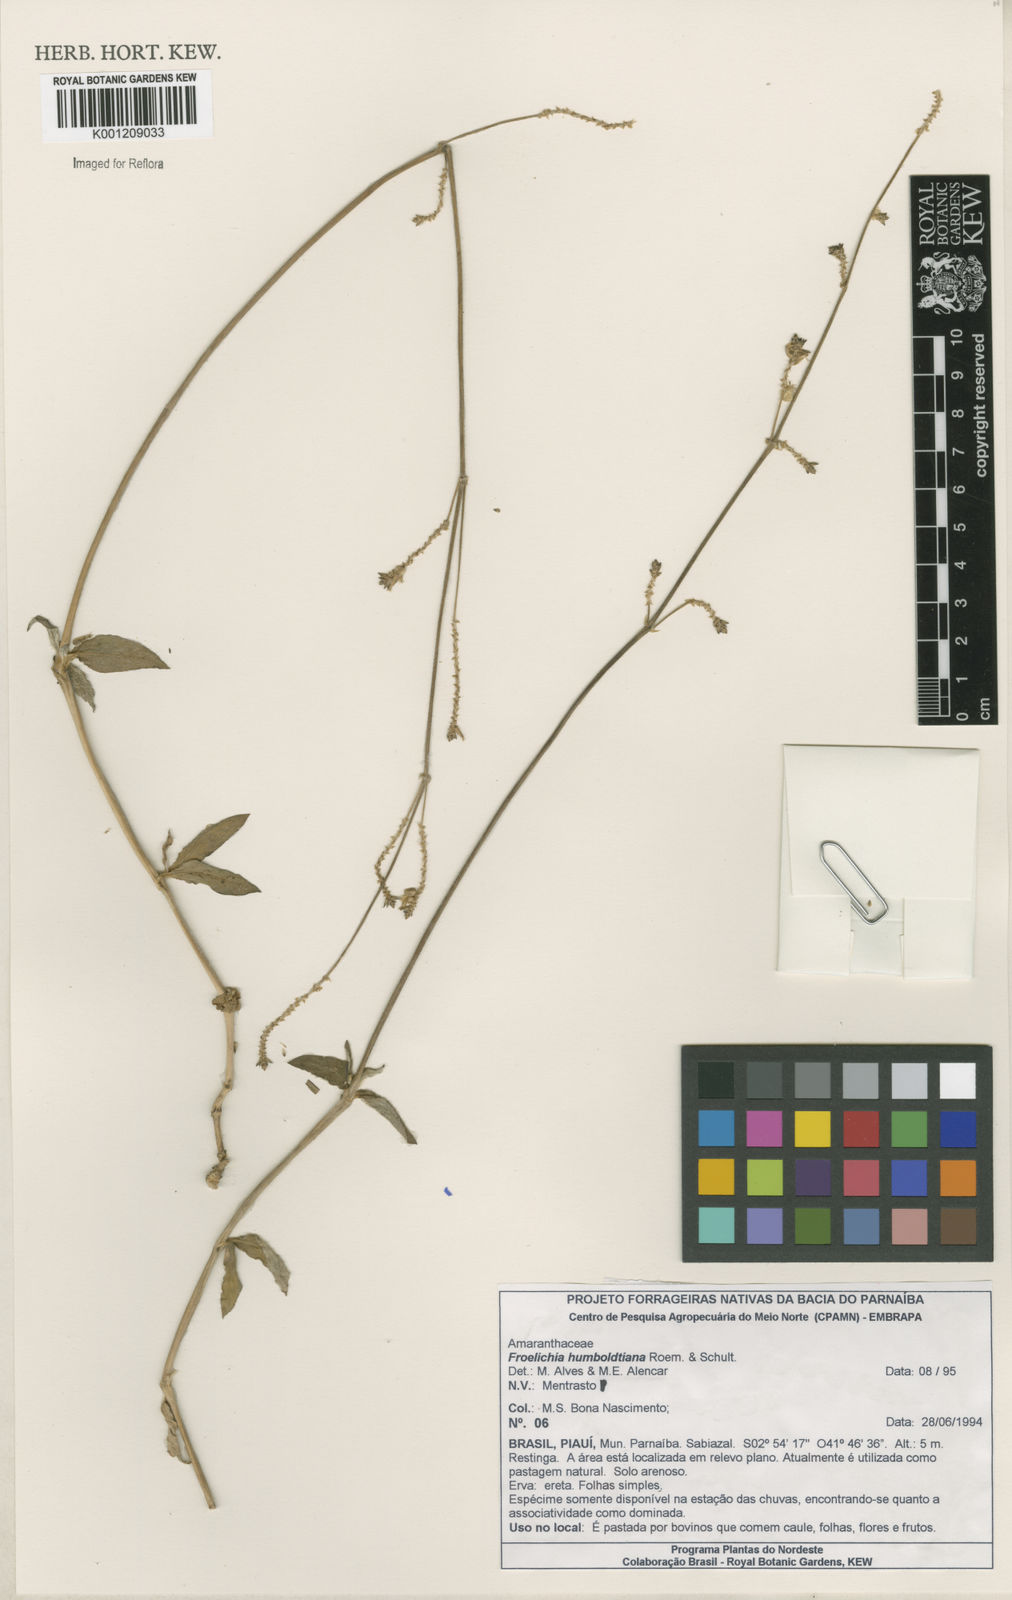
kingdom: Plantae
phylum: Tracheophyta
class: Magnoliopsida
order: Caryophyllales
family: Amaranthaceae
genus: Froelichia
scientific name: Froelichia humboldtiana
